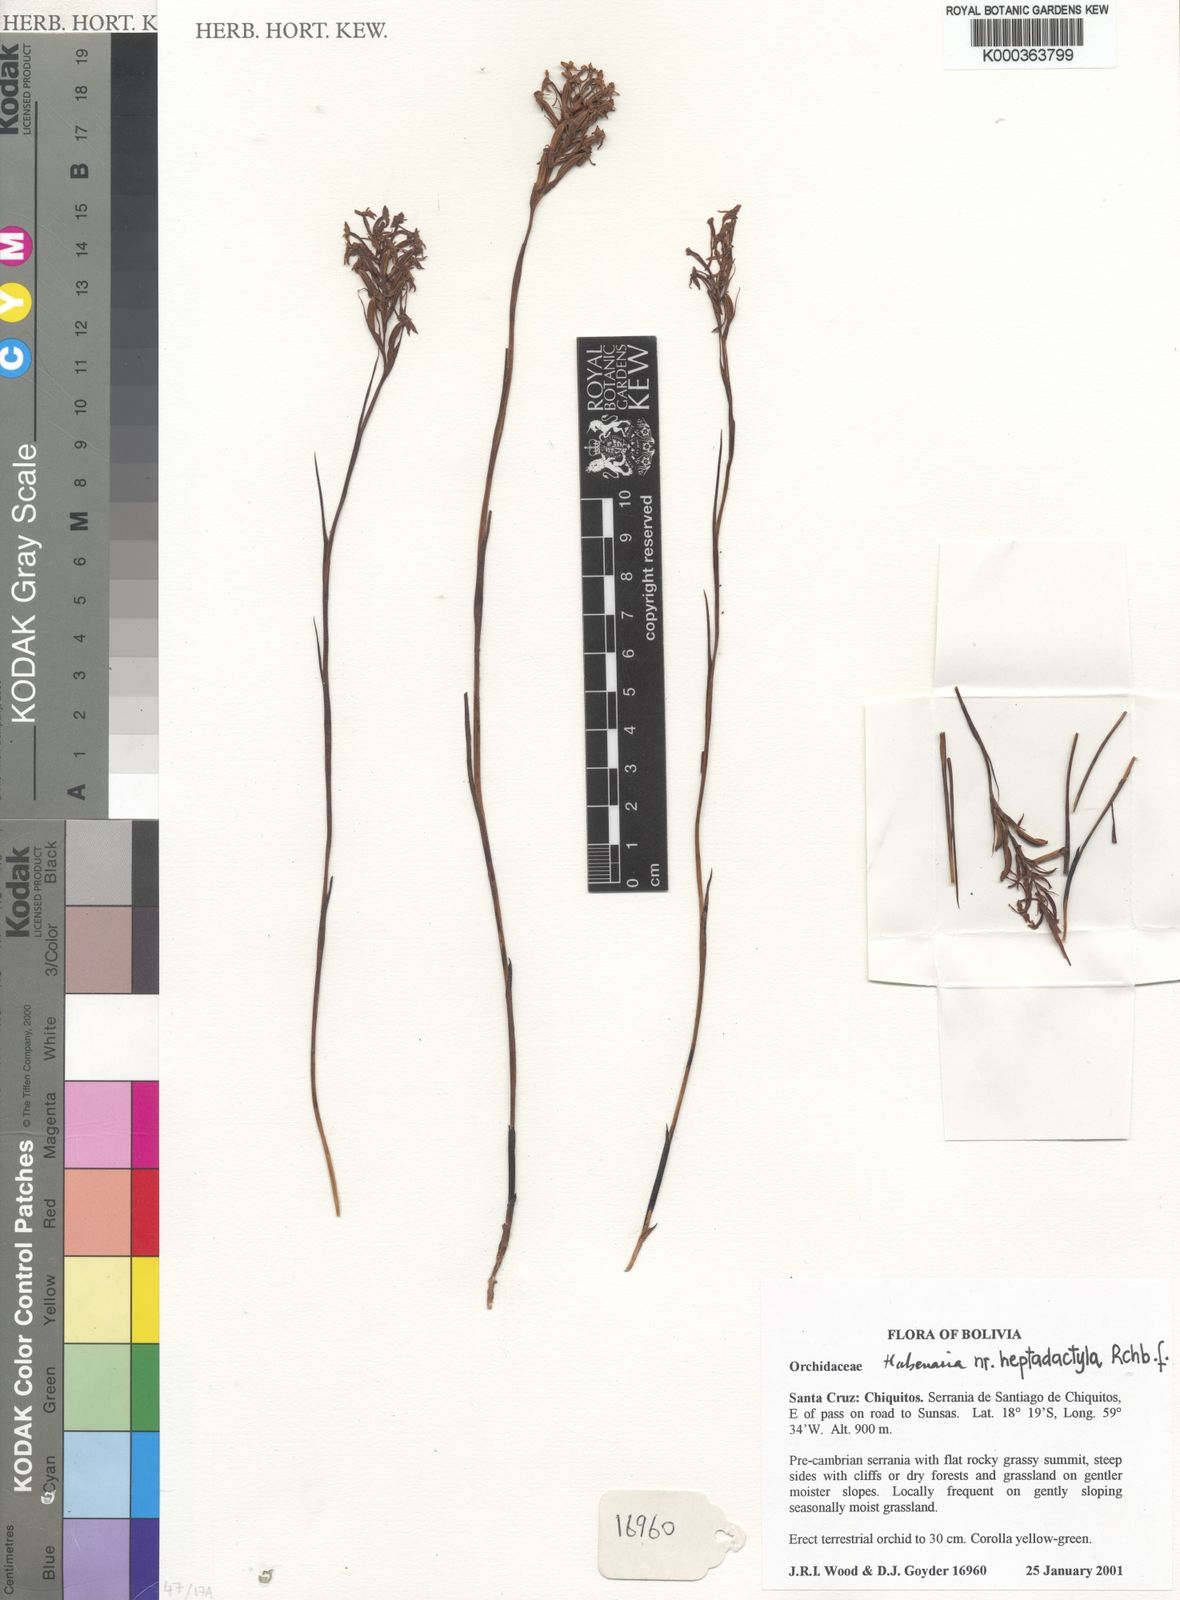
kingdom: Plantae
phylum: Tracheophyta
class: Liliopsida
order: Asparagales
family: Orchidaceae
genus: Habenaria
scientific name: Habenaria heptadactyla
